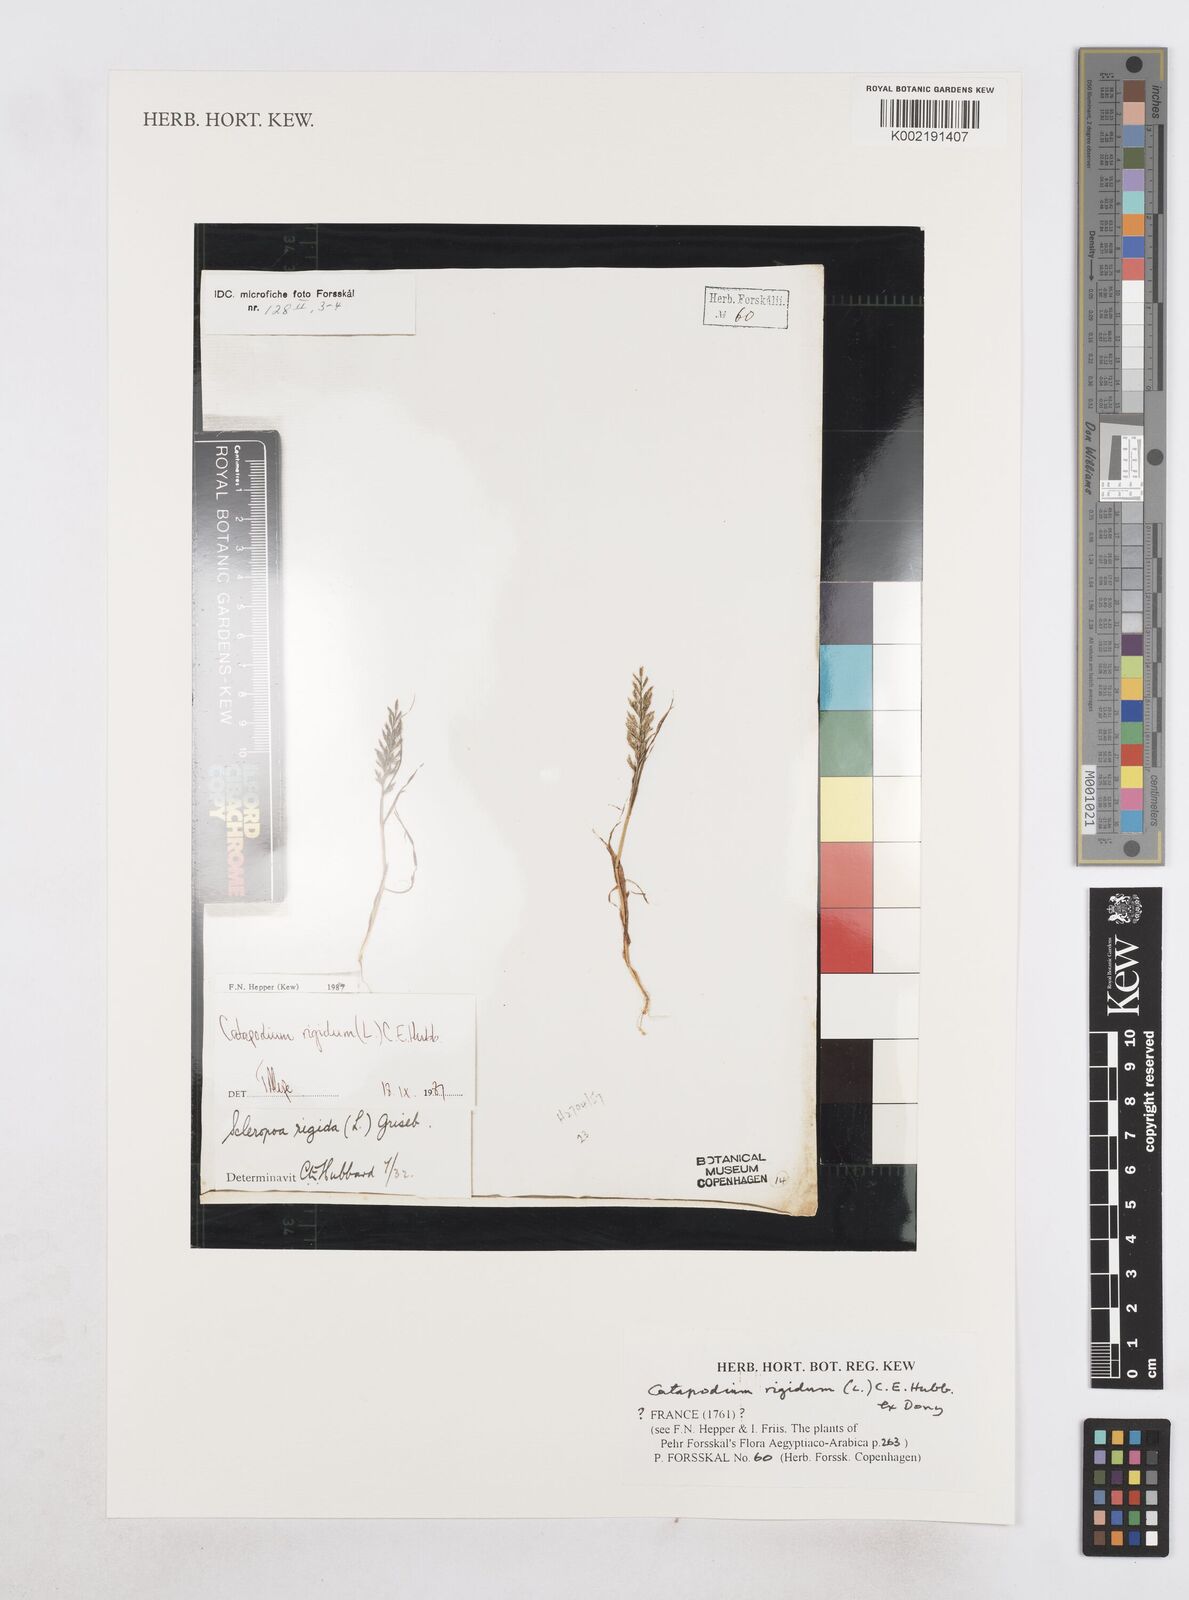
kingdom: Plantae
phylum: Tracheophyta
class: Liliopsida
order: Poales
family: Poaceae
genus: Catapodium
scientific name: Catapodium rigidum
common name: Fern-grass
